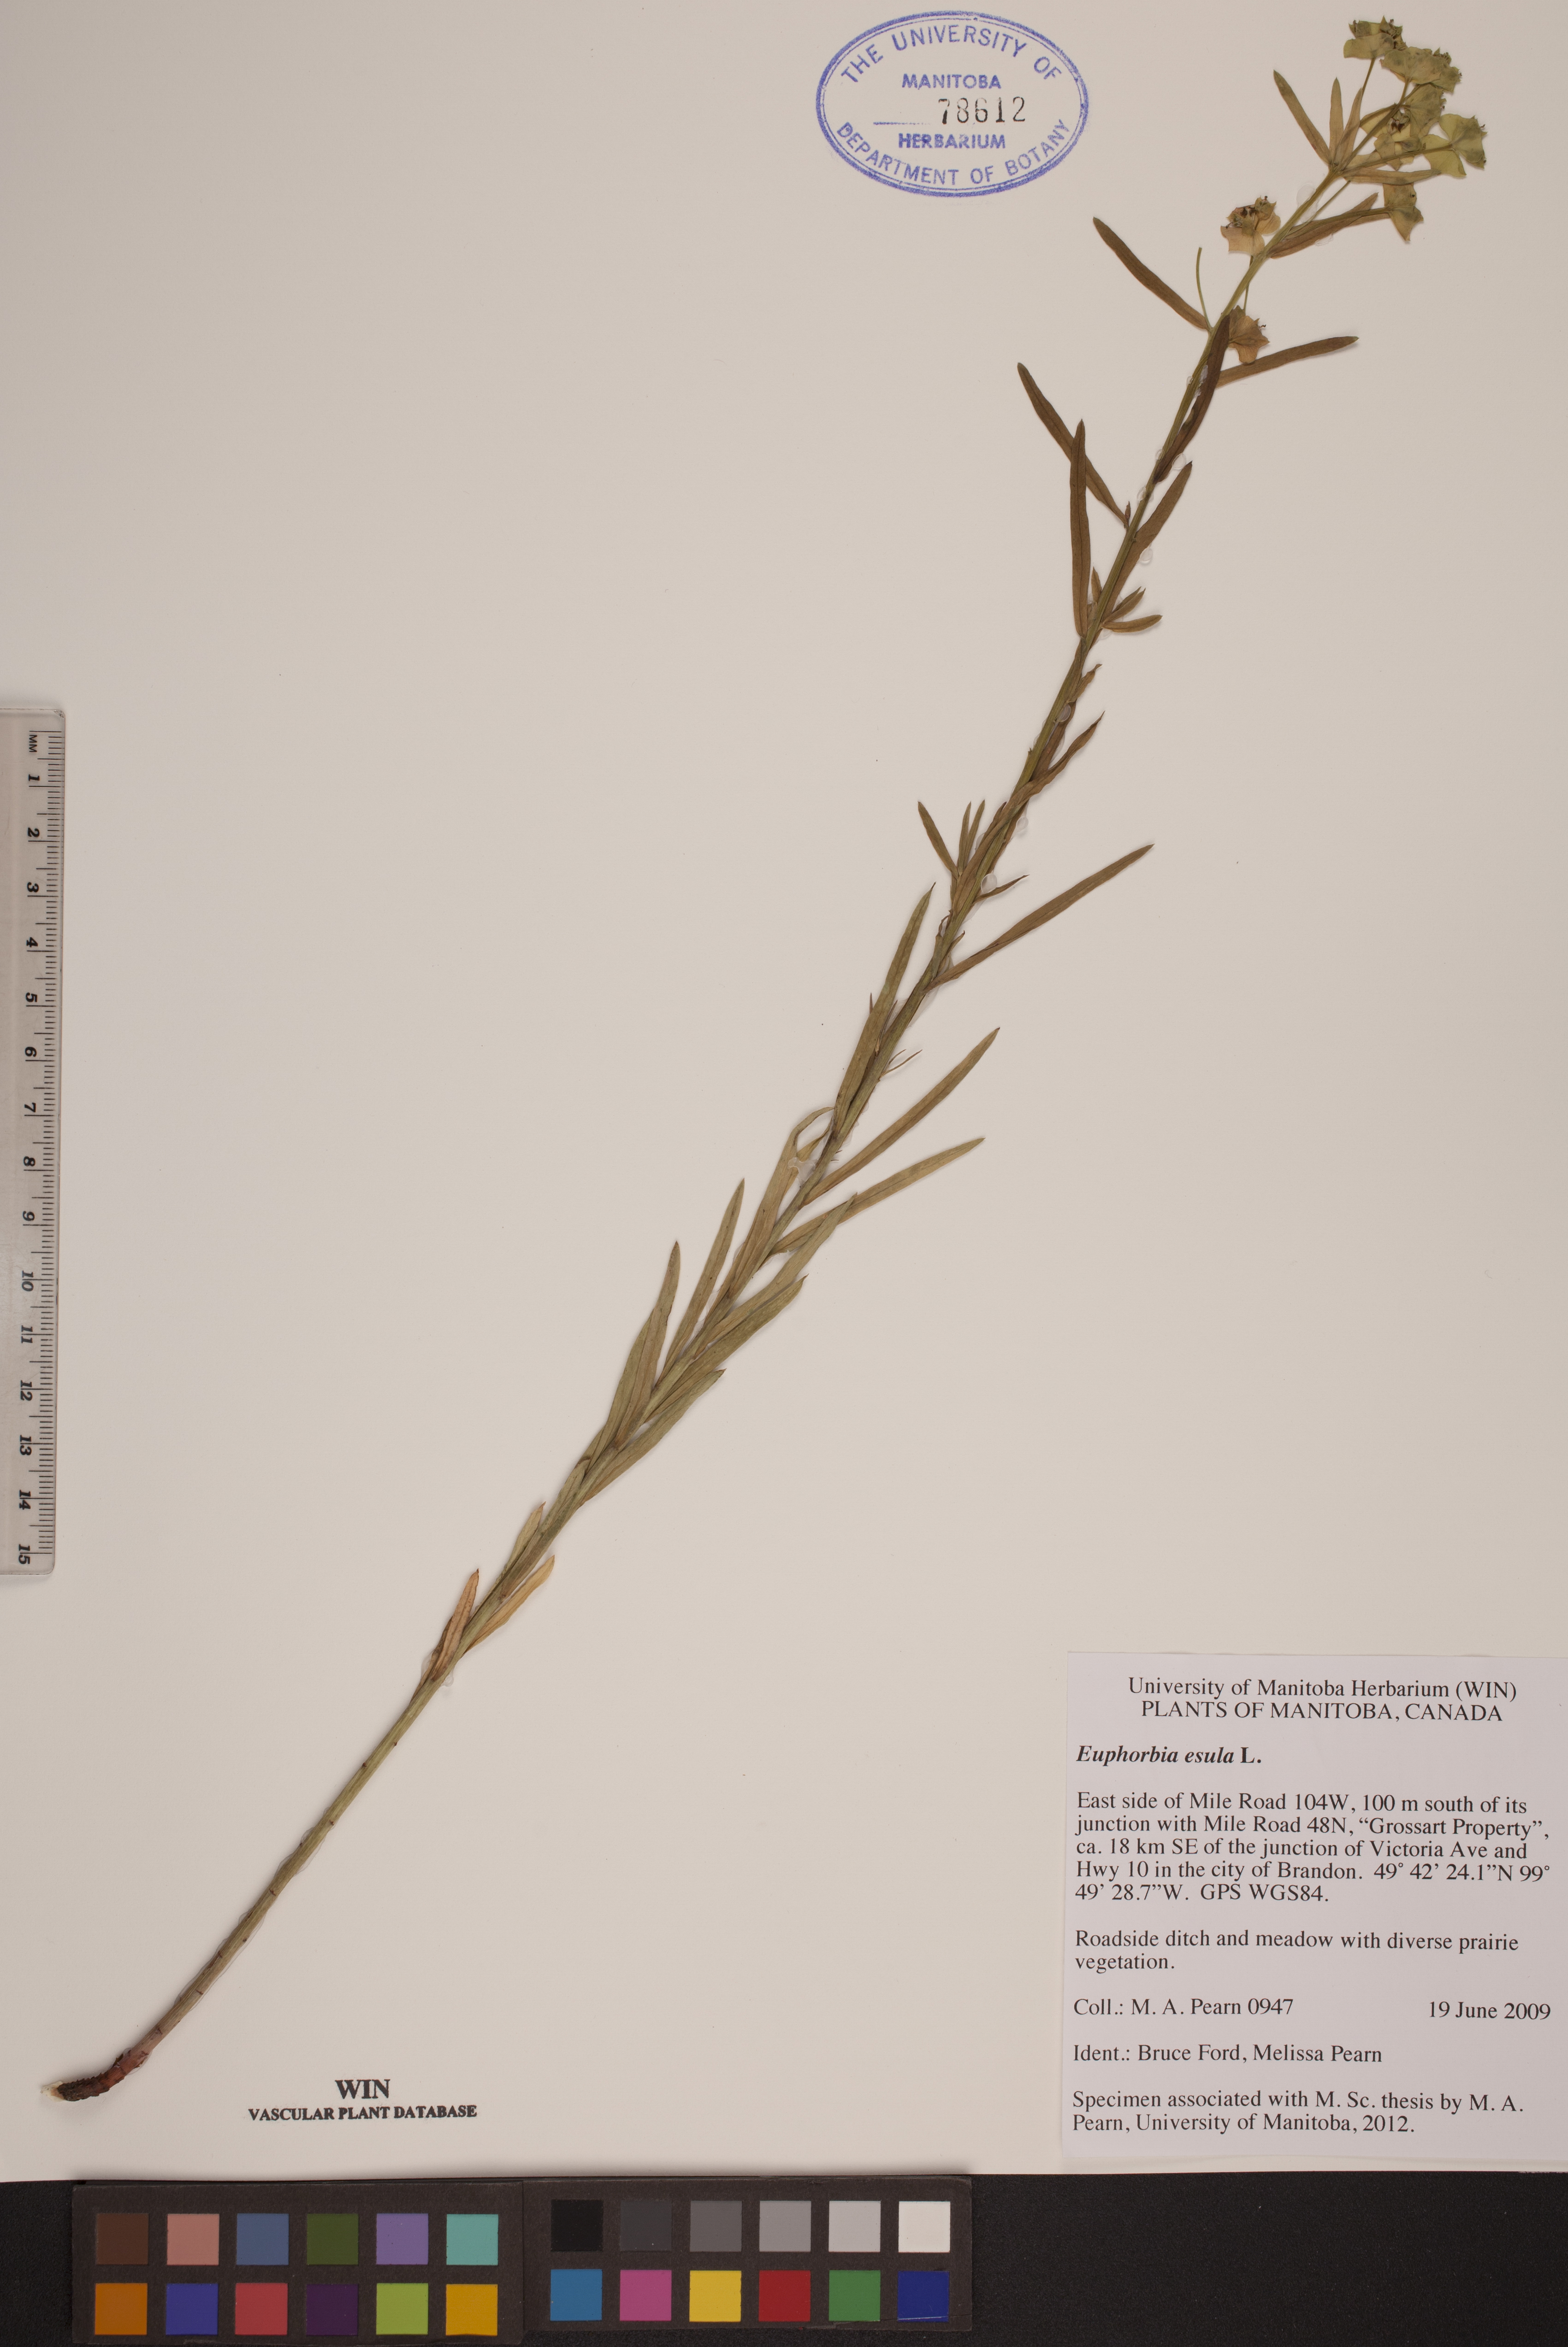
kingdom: Plantae
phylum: Tracheophyta
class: Magnoliopsida
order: Malpighiales
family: Euphorbiaceae
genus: Euphorbia
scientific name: Euphorbia esula
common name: Leafy spurge
